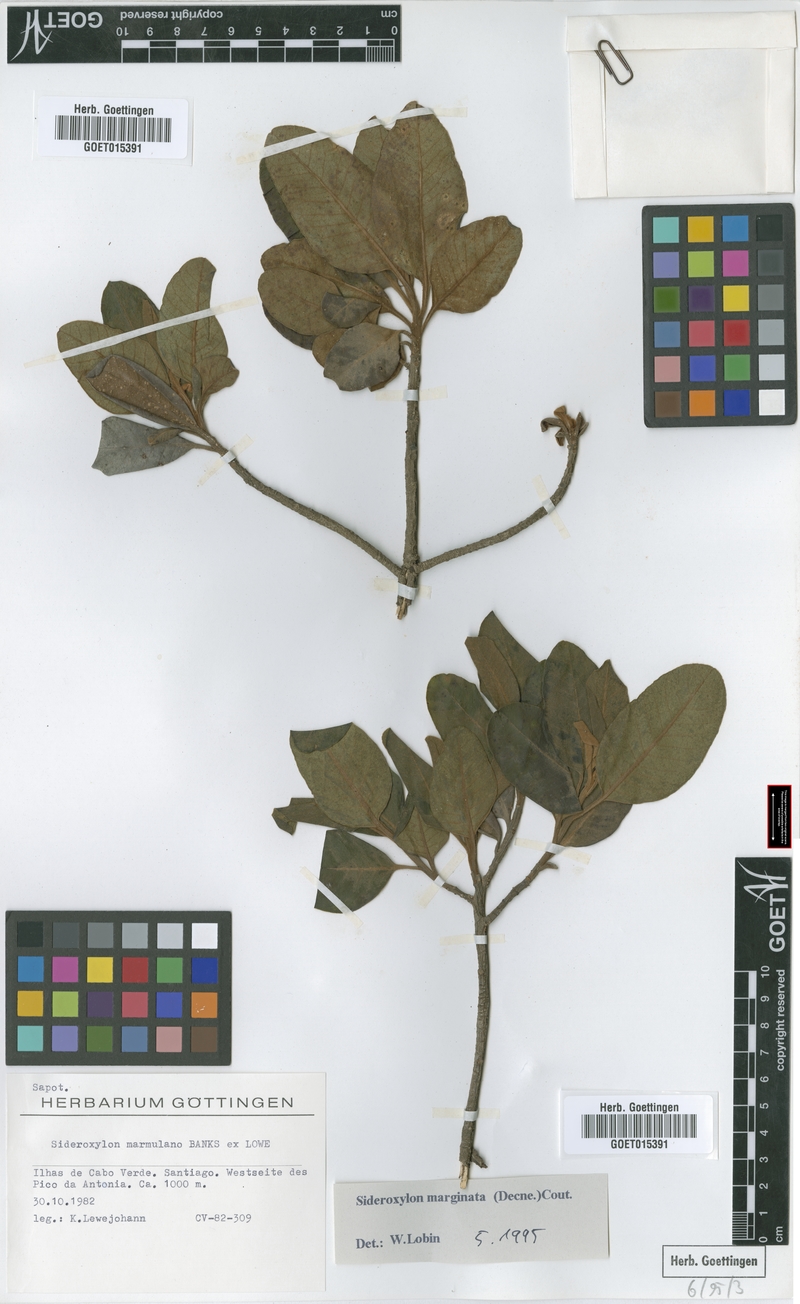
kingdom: Plantae
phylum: Tracheophyta
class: Magnoliopsida
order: Ericales
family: Sapotaceae
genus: Sideroxylon
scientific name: Sideroxylon marginatum
